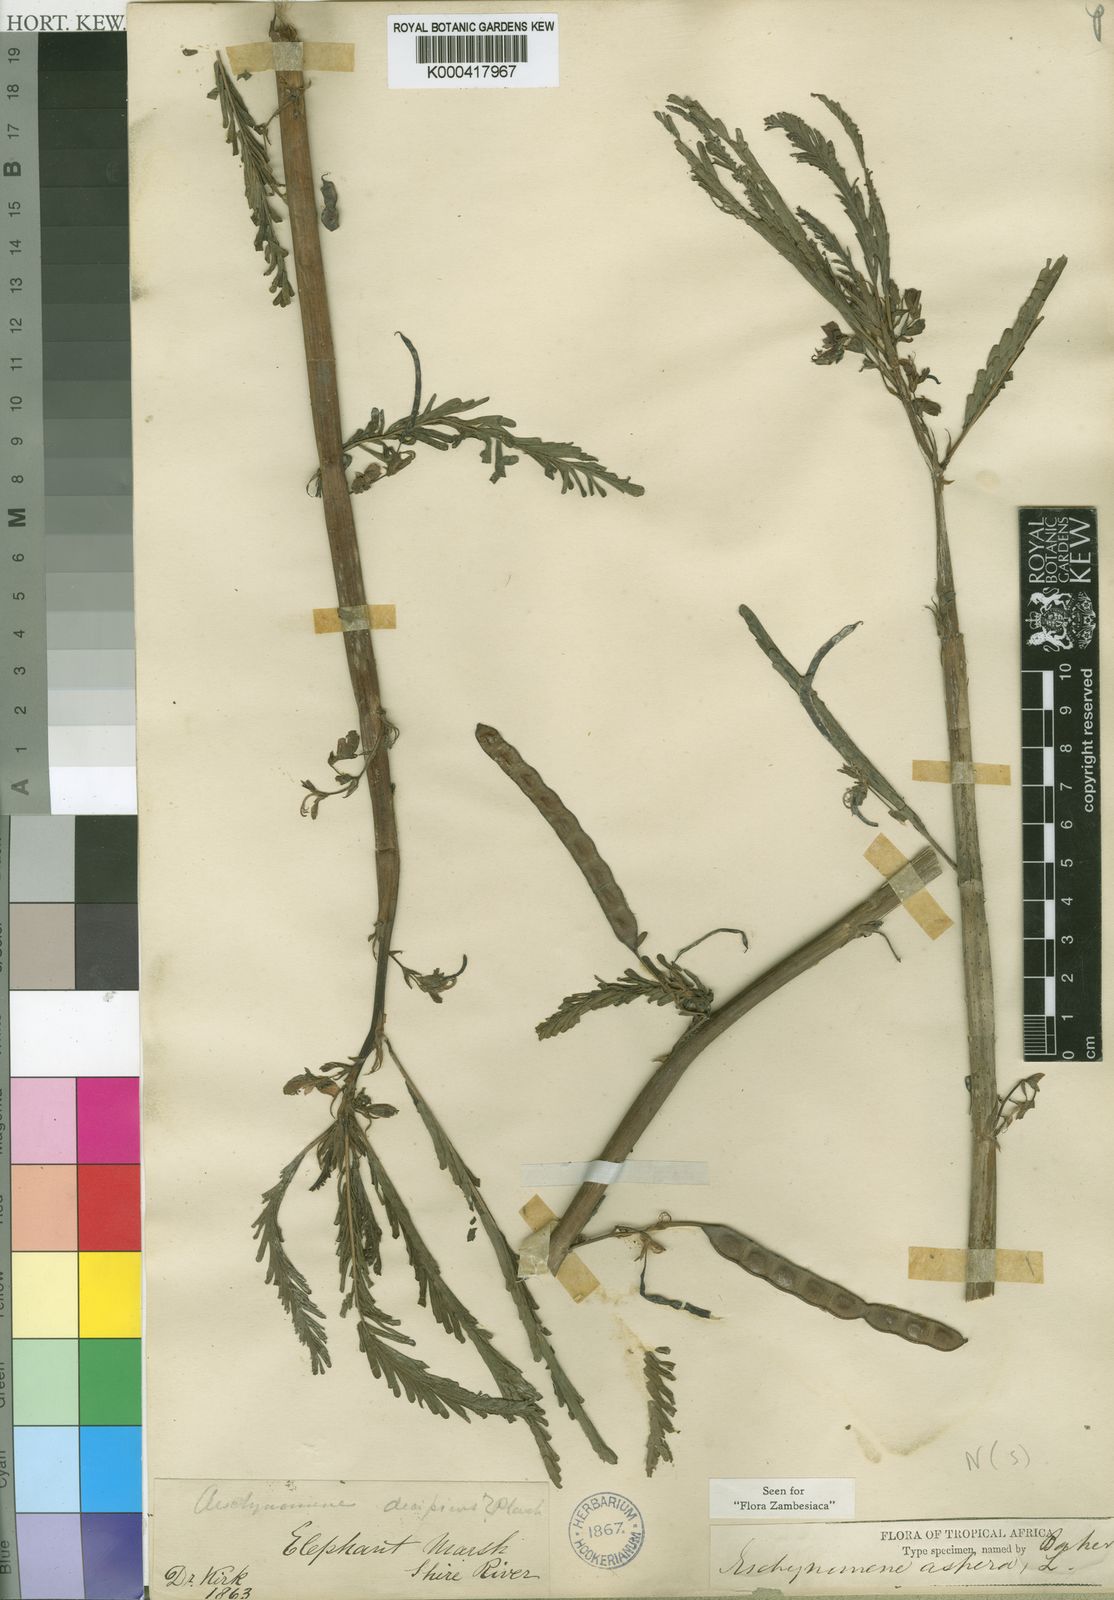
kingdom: Plantae
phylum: Tracheophyta
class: Magnoliopsida
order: Fabales
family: Fabaceae
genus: Aeschynomene
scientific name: Aeschynomene pulchella
